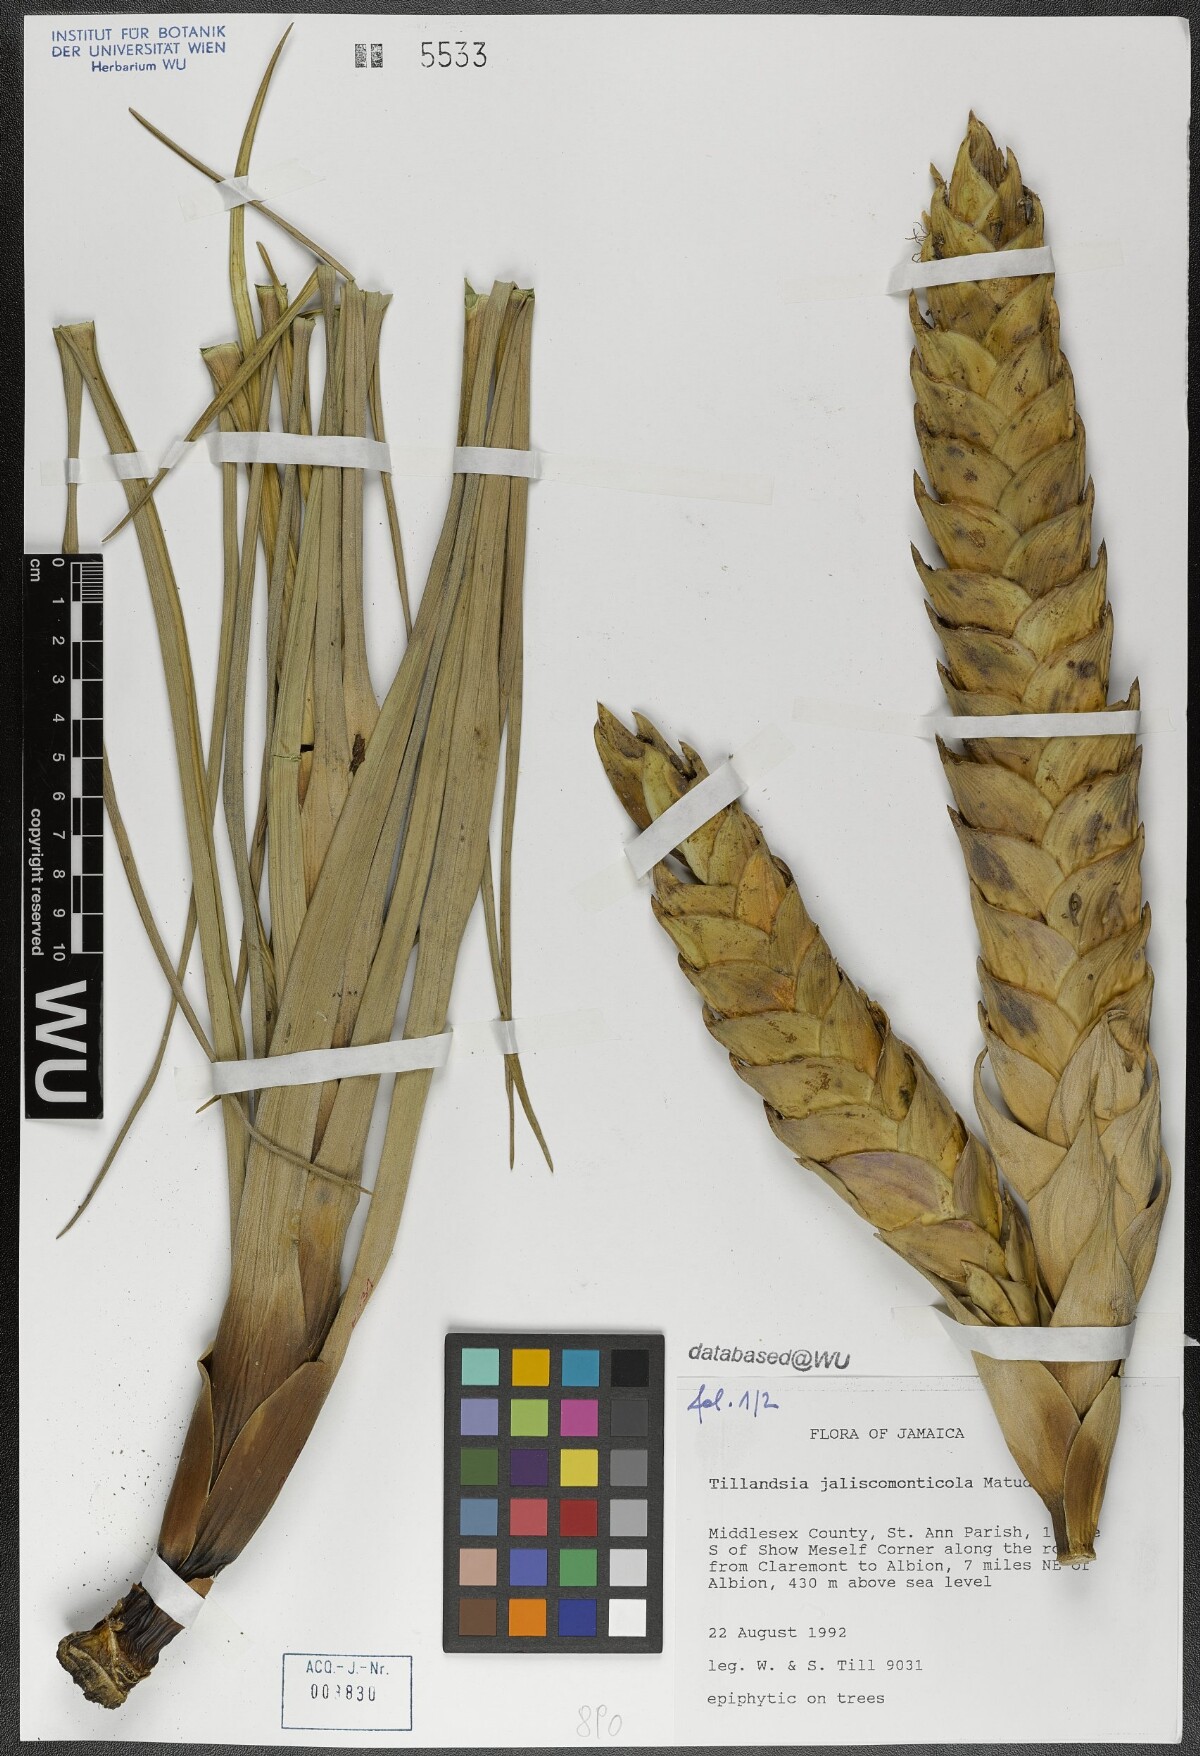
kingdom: Plantae
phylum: Tracheophyta
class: Liliopsida
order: Poales
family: Bromeliaceae
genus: Tillandsia
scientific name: Tillandsia compressa
